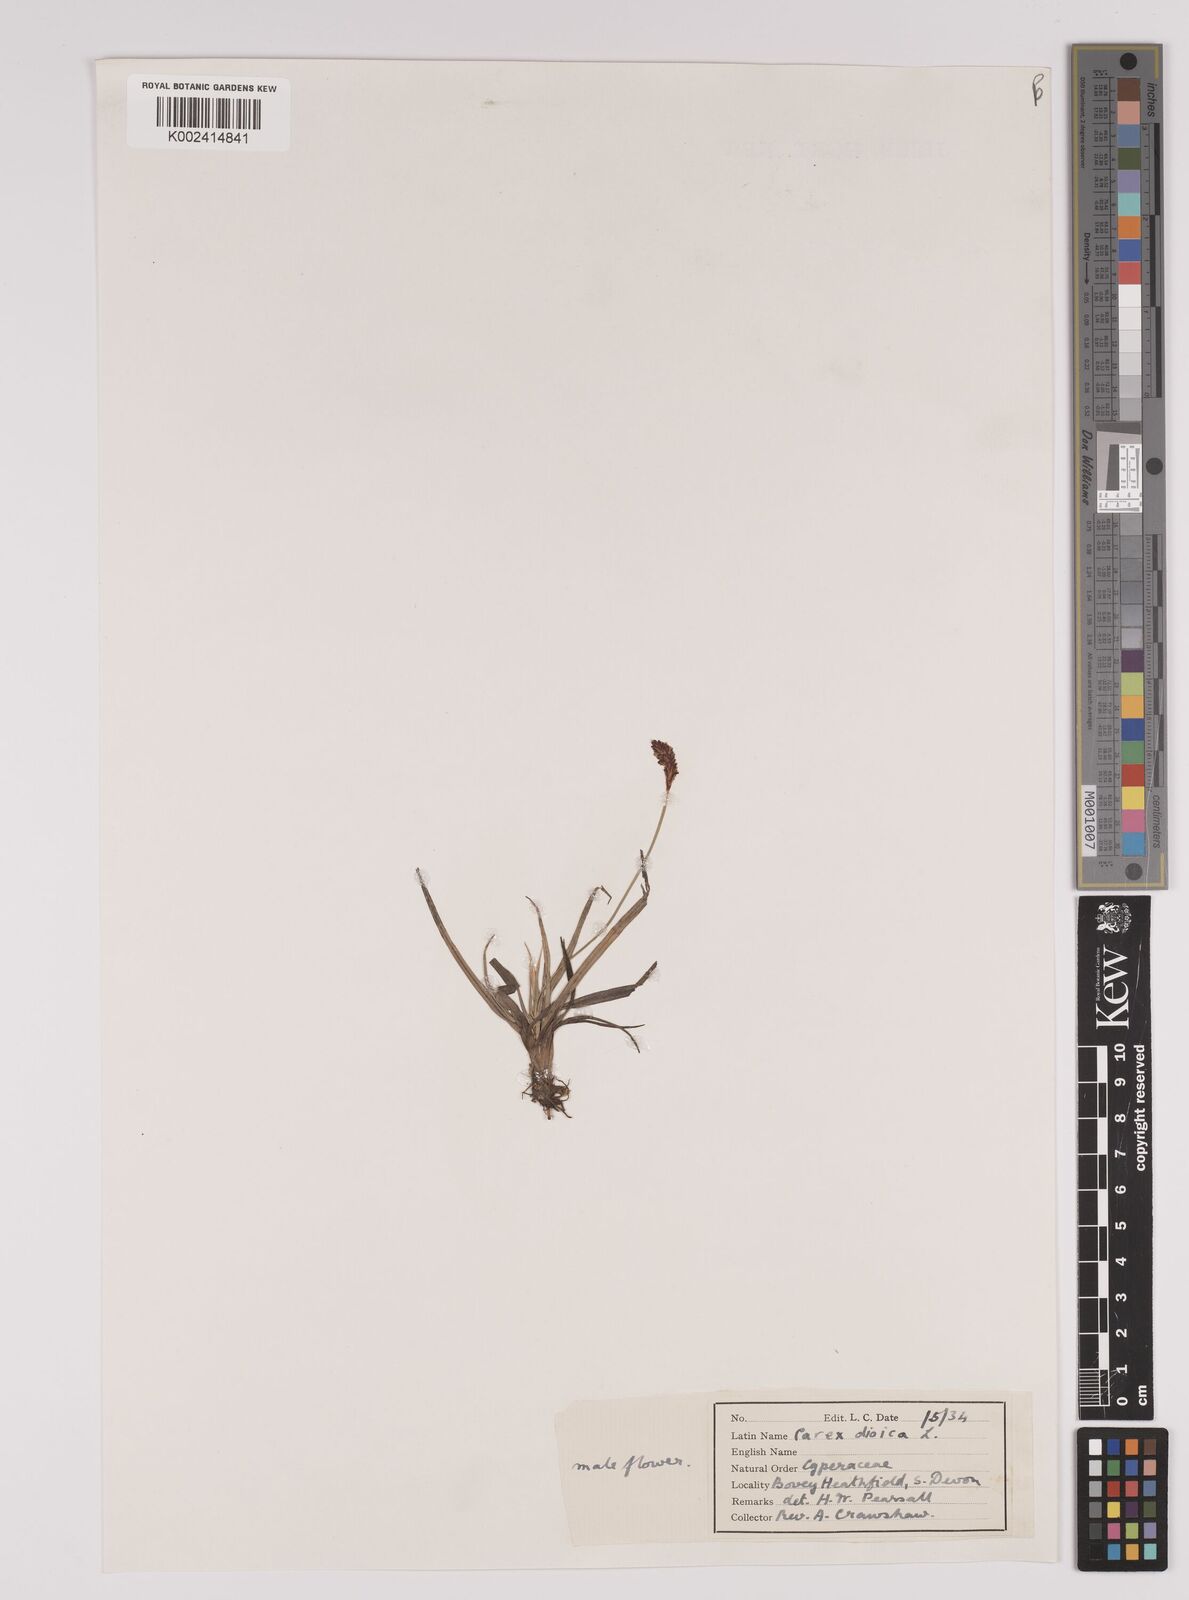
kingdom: Plantae
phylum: Tracheophyta
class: Liliopsida
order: Poales
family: Cyperaceae
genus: Carex
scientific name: Carex dioica
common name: Dioecious sedge
